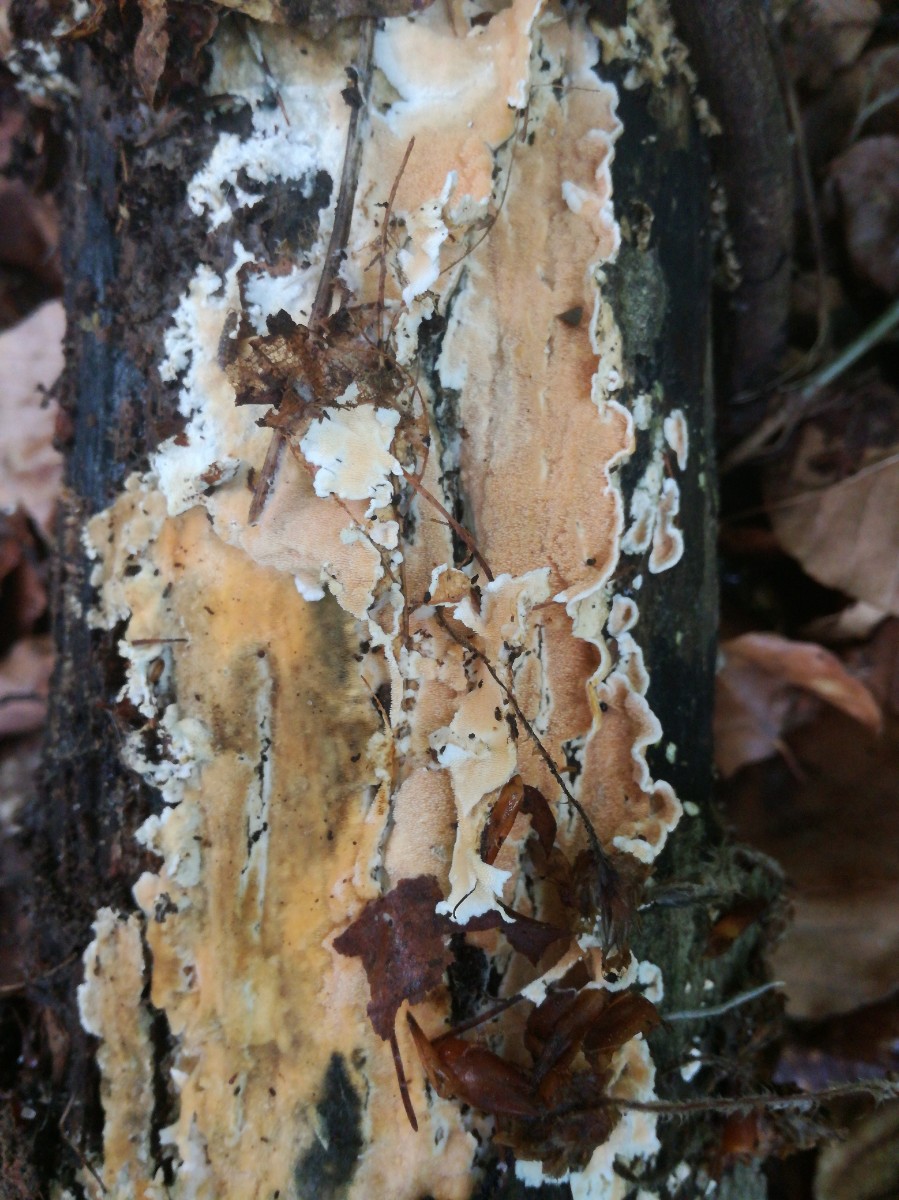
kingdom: Fungi
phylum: Basidiomycota
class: Agaricomycetes
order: Polyporales
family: Steccherinaceae
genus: Junghuhnia
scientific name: Junghuhnia nitida
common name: almindelig skønporesvamp
